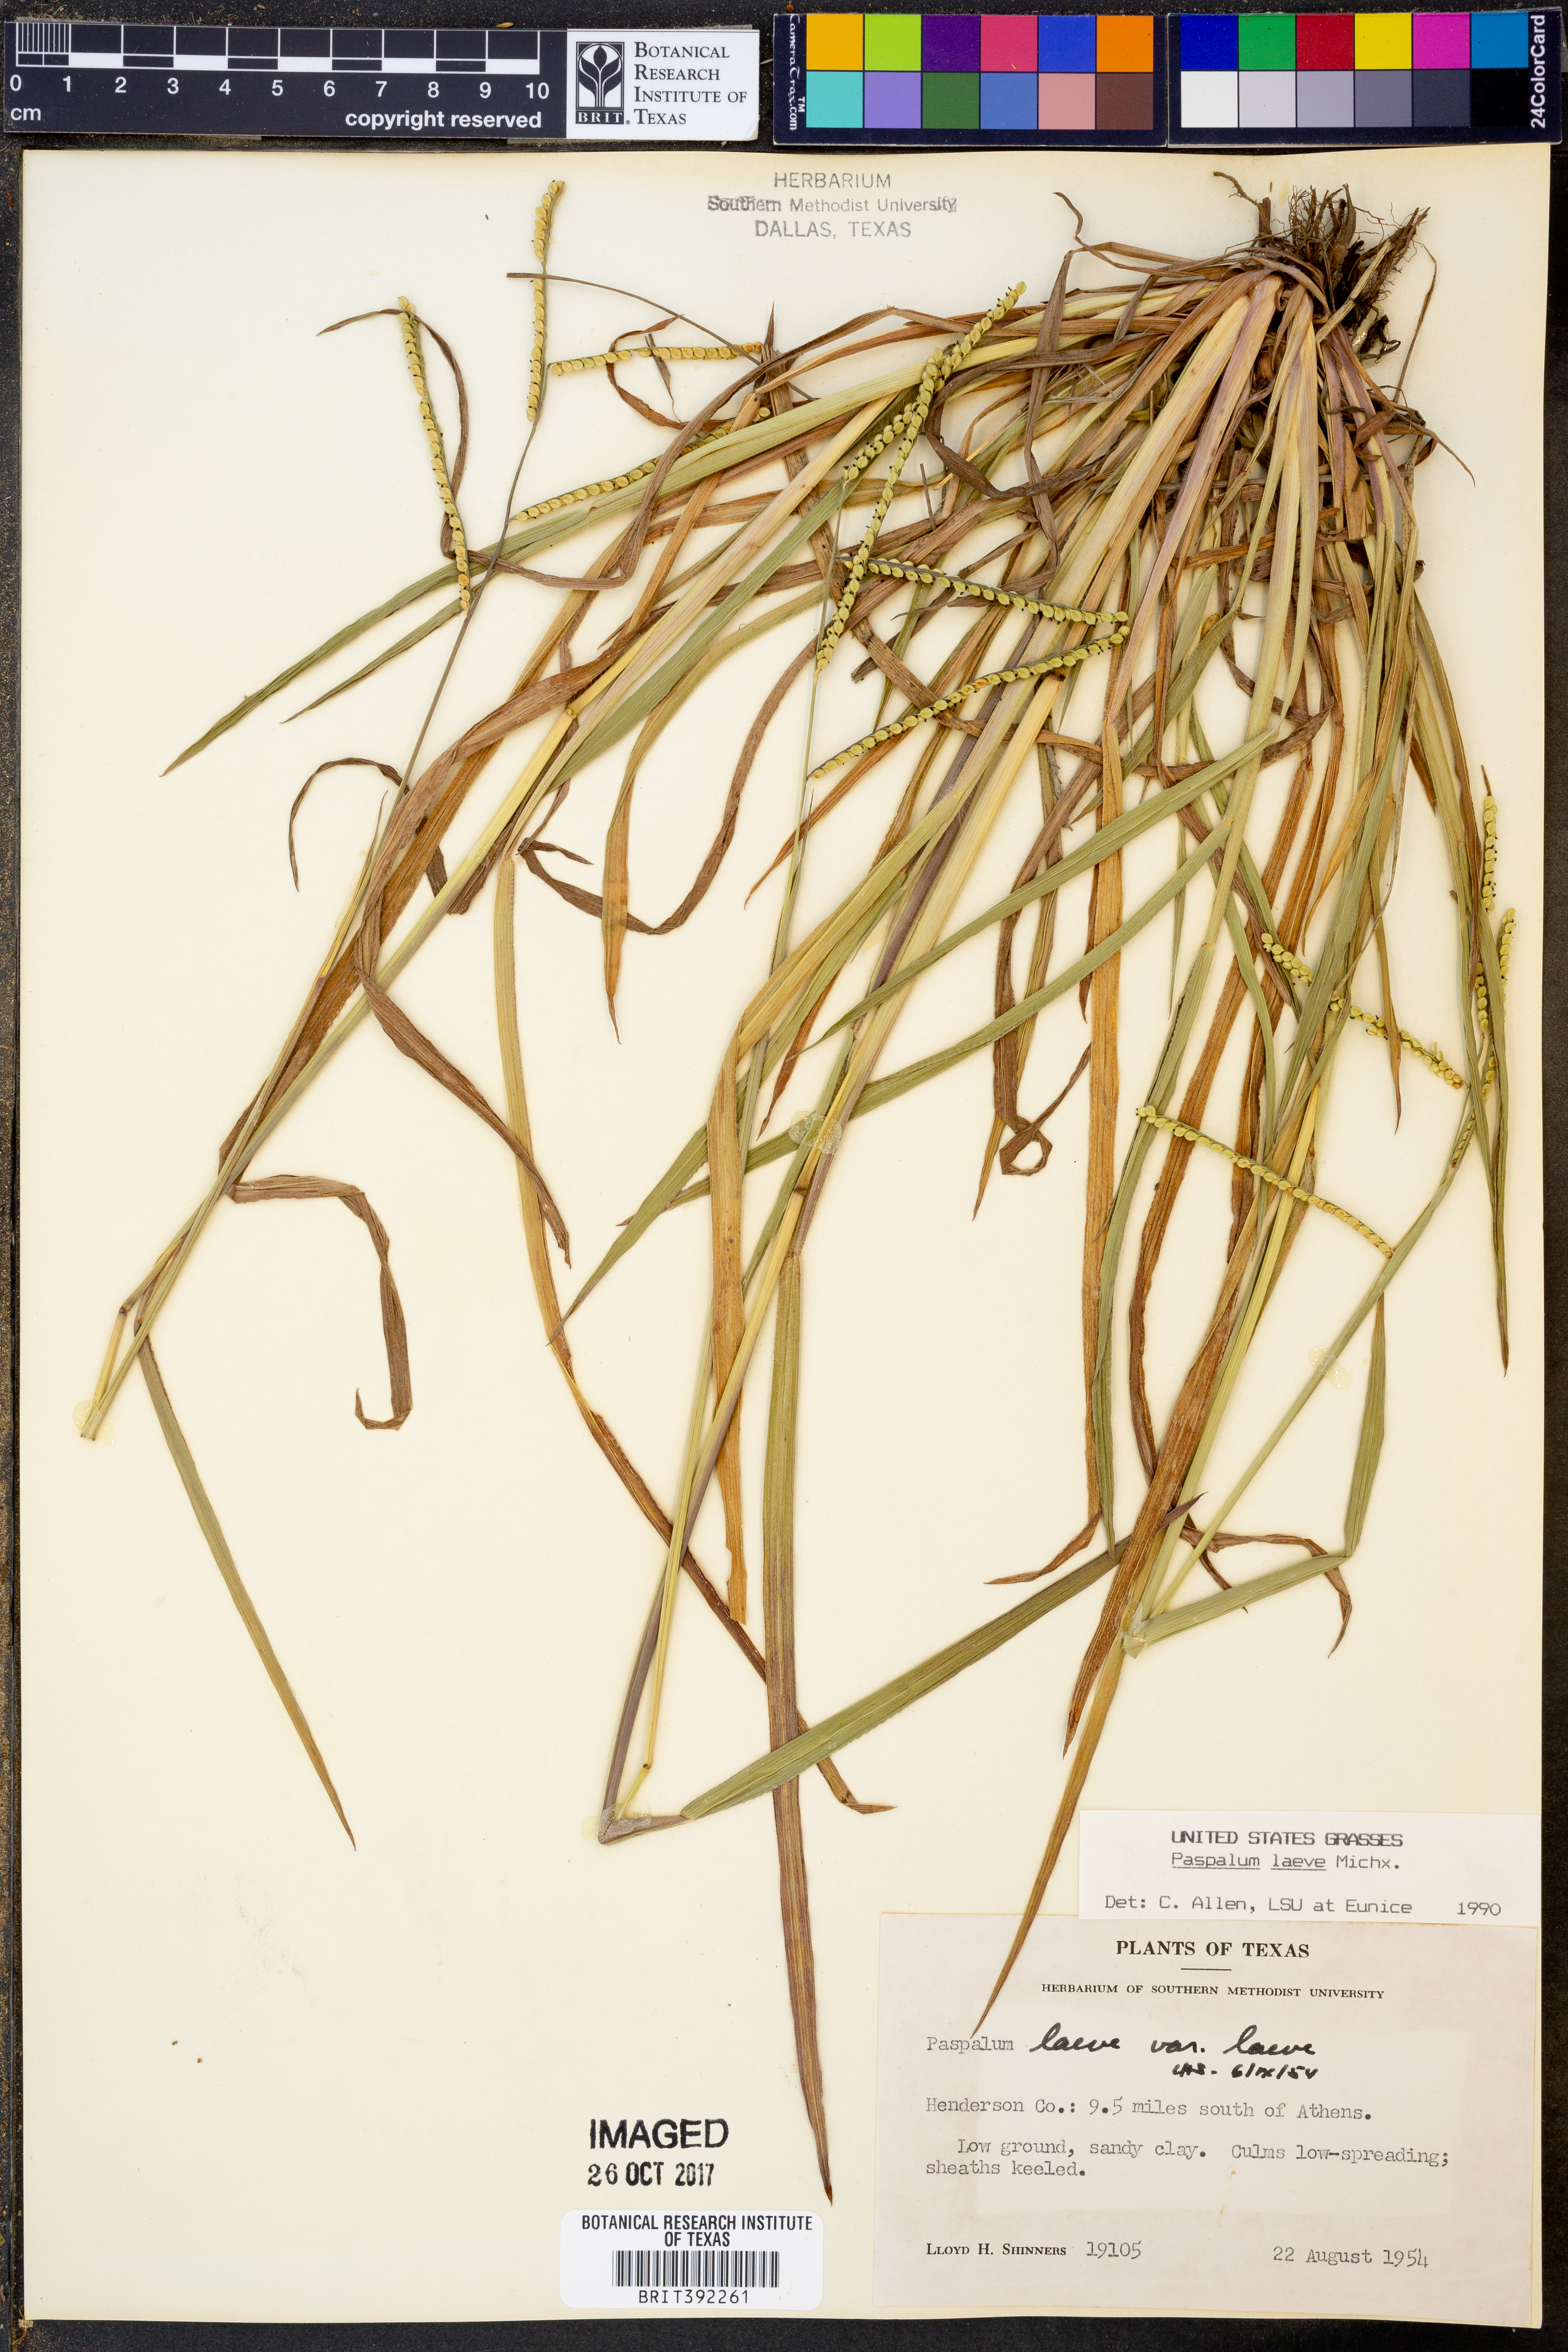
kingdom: Plantae
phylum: Tracheophyta
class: Liliopsida
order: Poales
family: Poaceae
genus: Paspalum
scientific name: Paspalum laeve
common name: Field paspalum
